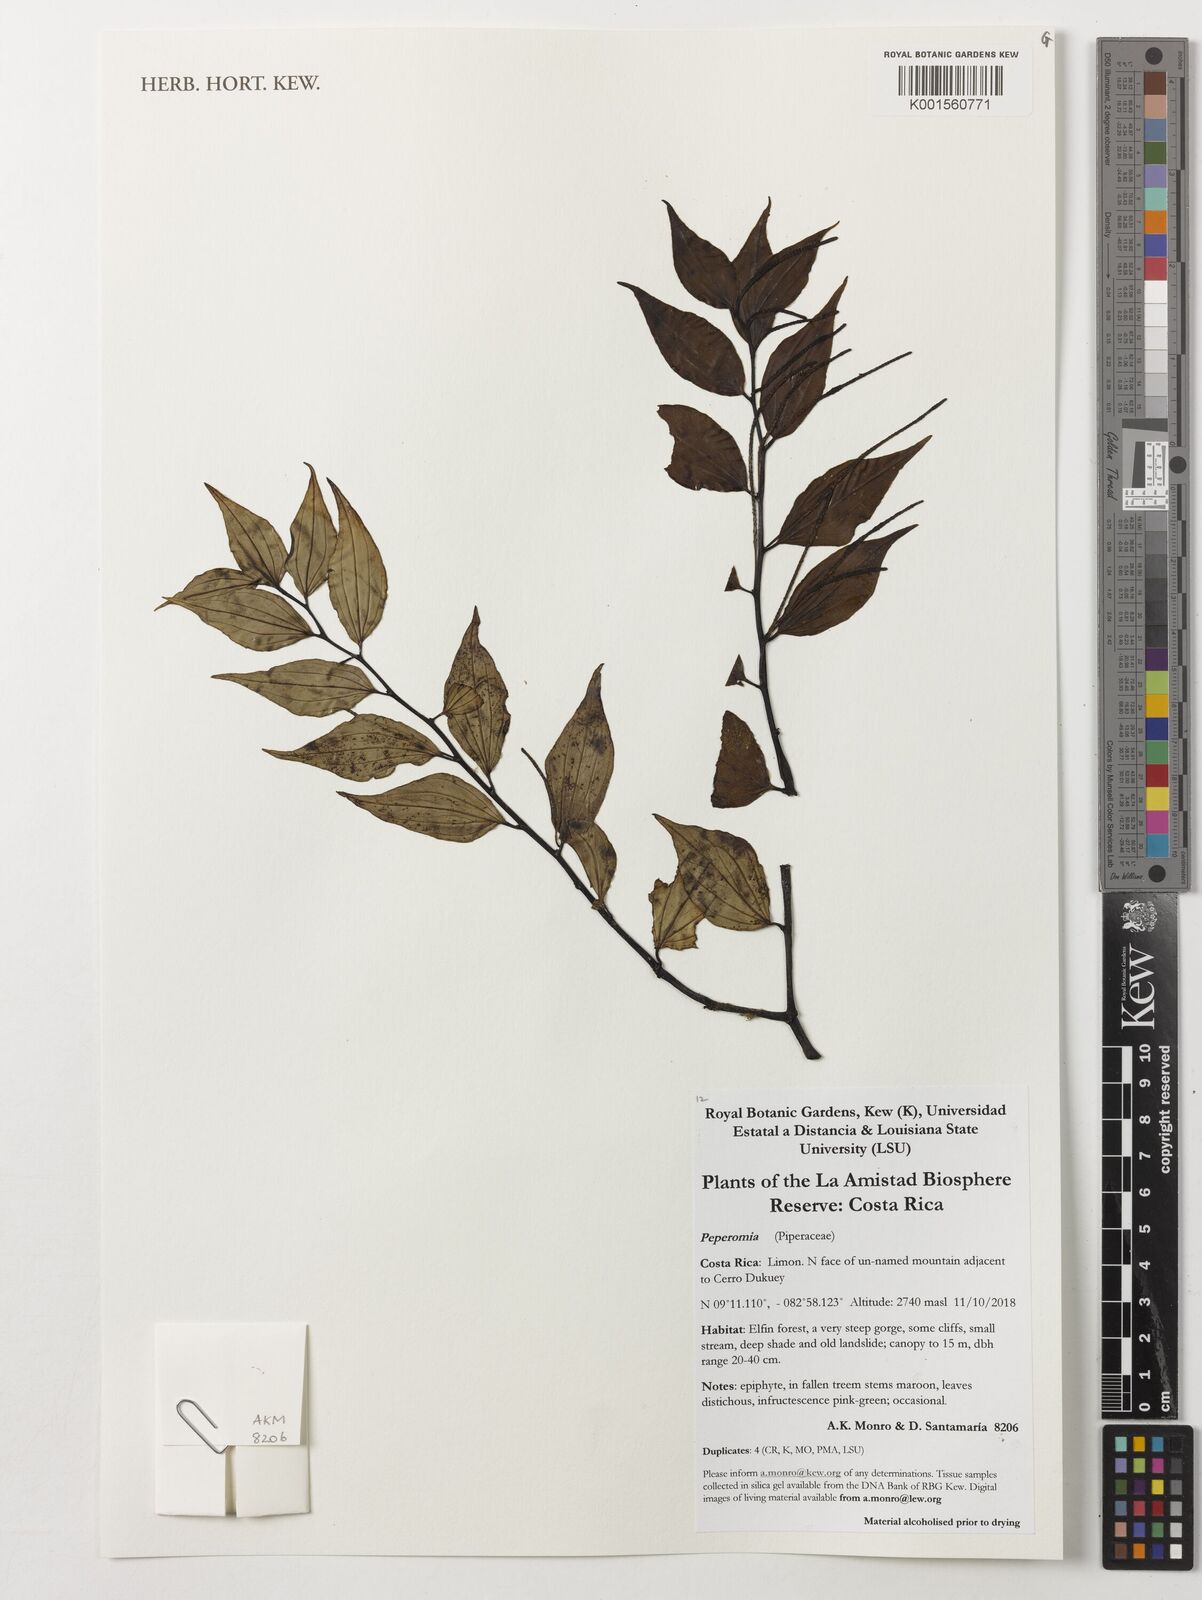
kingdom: Plantae
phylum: Tracheophyta
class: Magnoliopsida
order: Piperales
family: Piperaceae
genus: Peperomia
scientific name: Peperomia
